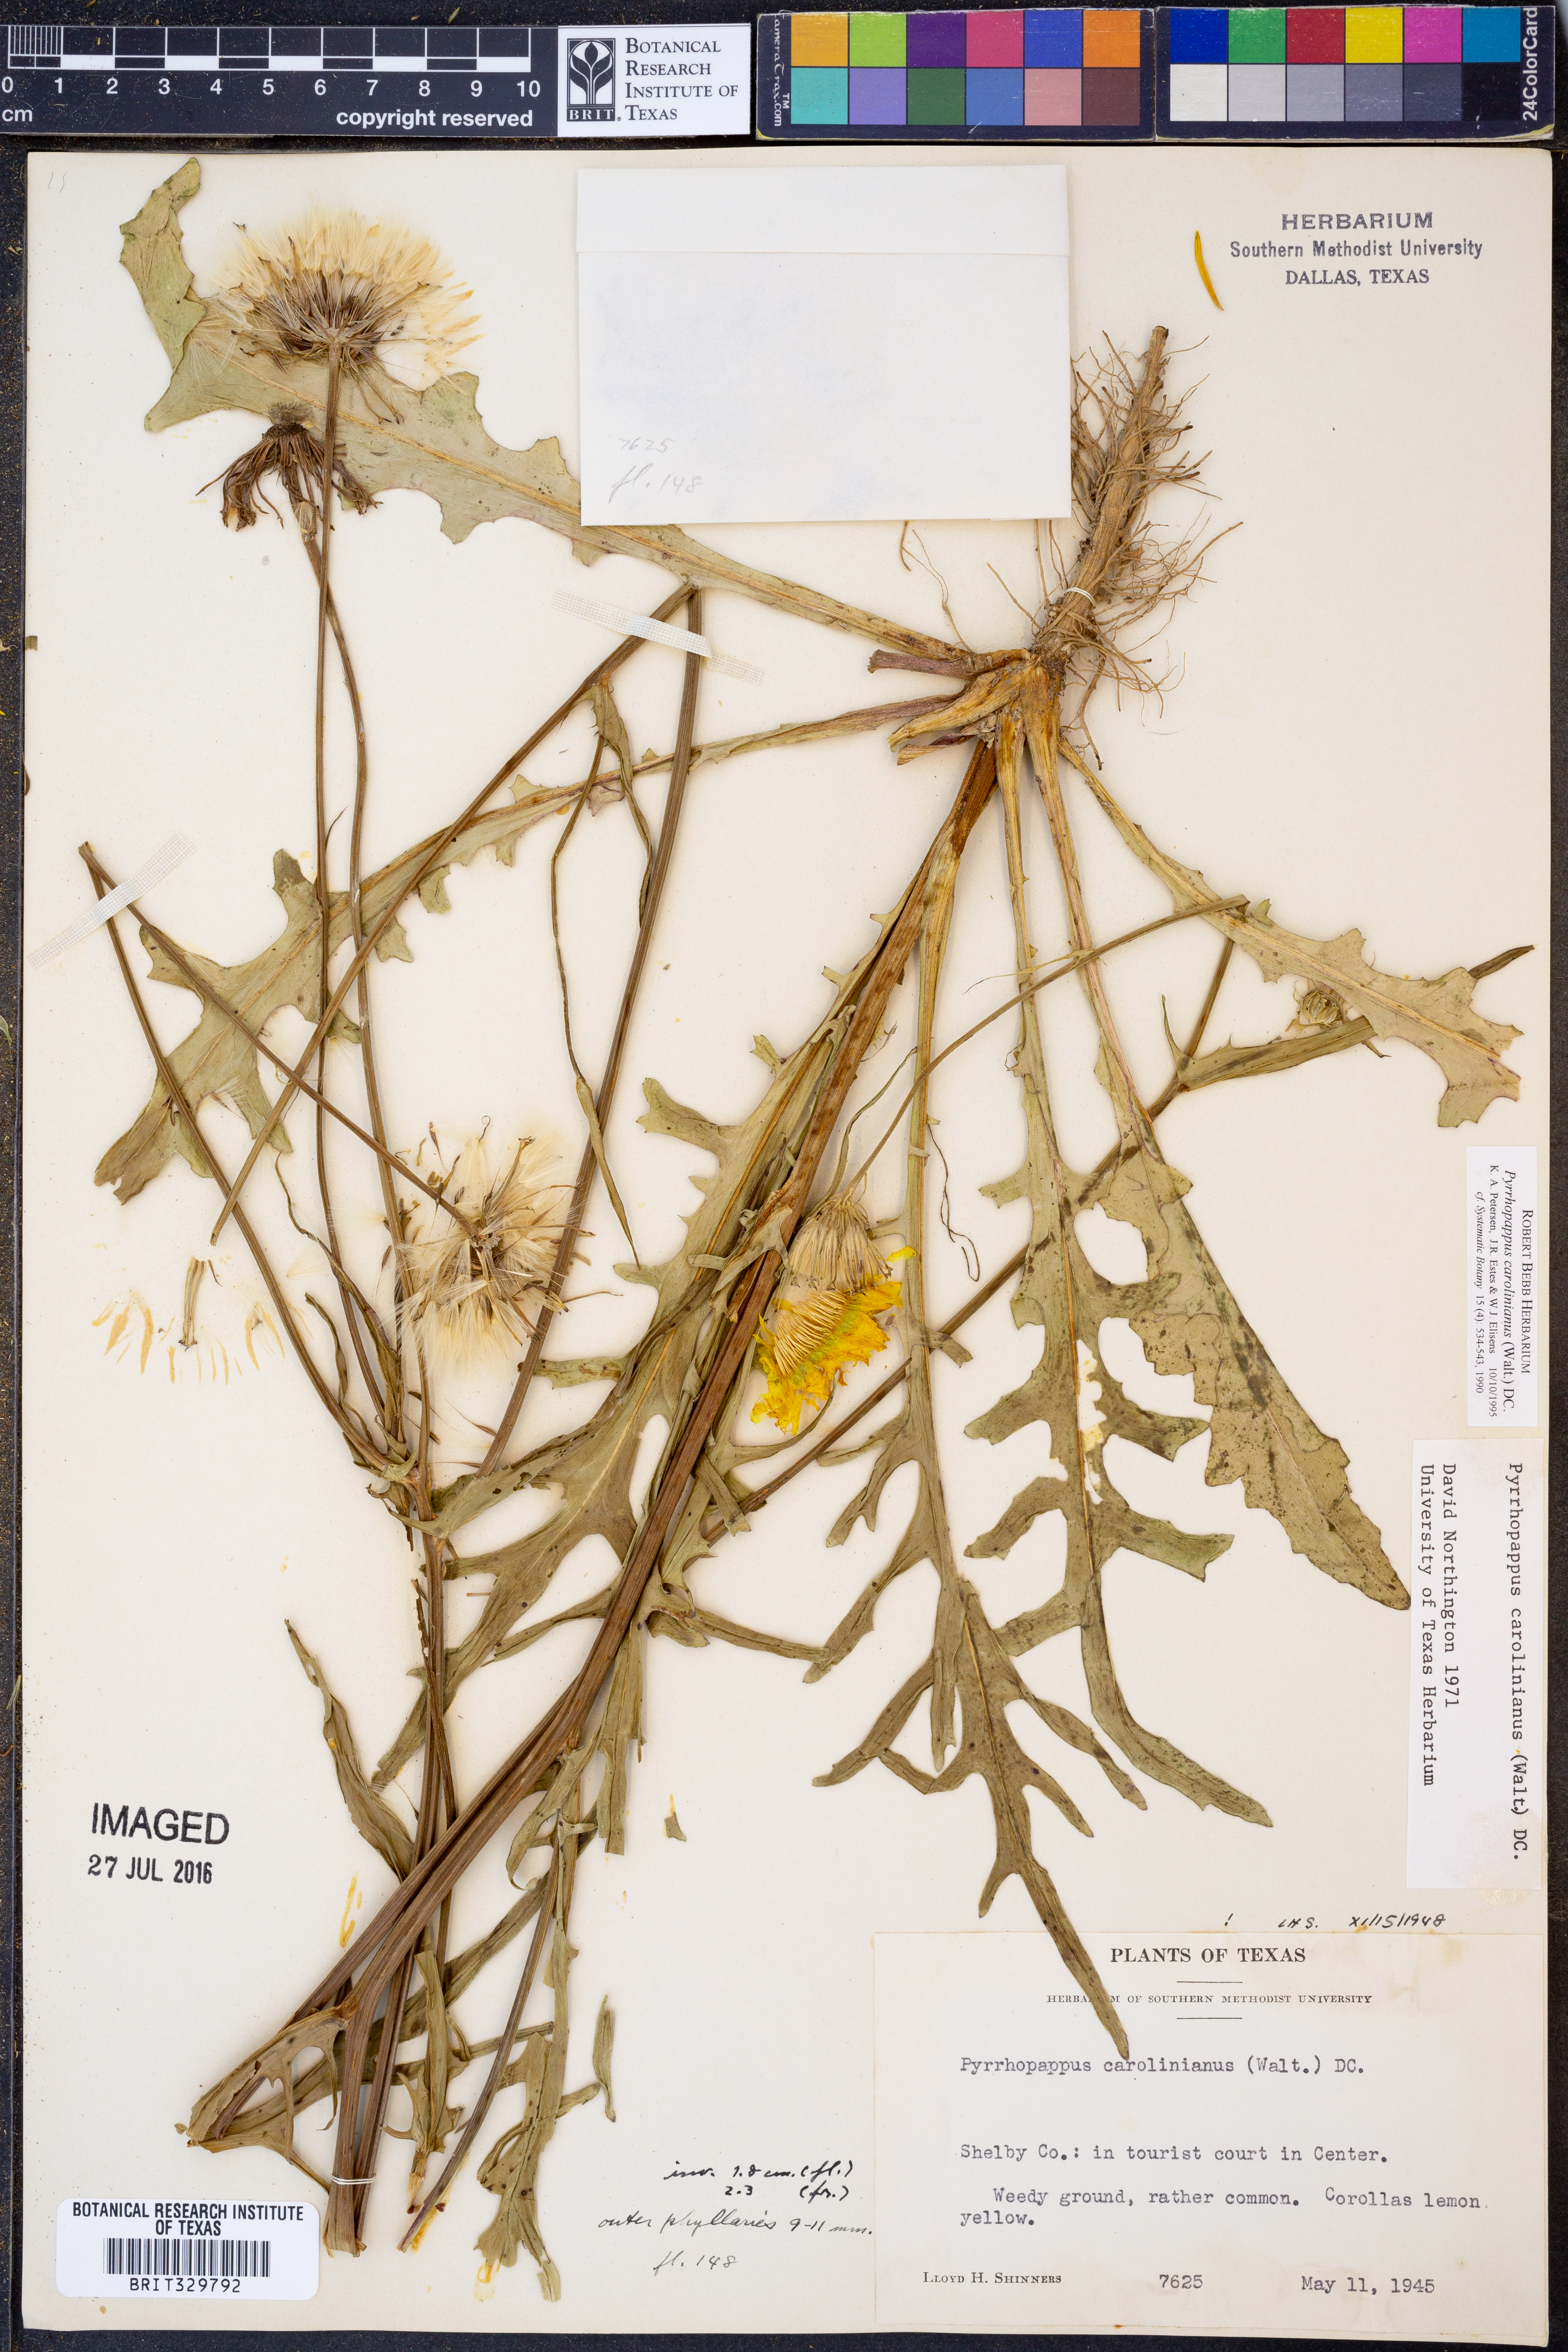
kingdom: Plantae
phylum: Tracheophyta
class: Magnoliopsida
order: Asterales
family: Asteraceae
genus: Pyrrhopappus
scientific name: Pyrrhopappus carolinianus
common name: Carolina desert-chicory
